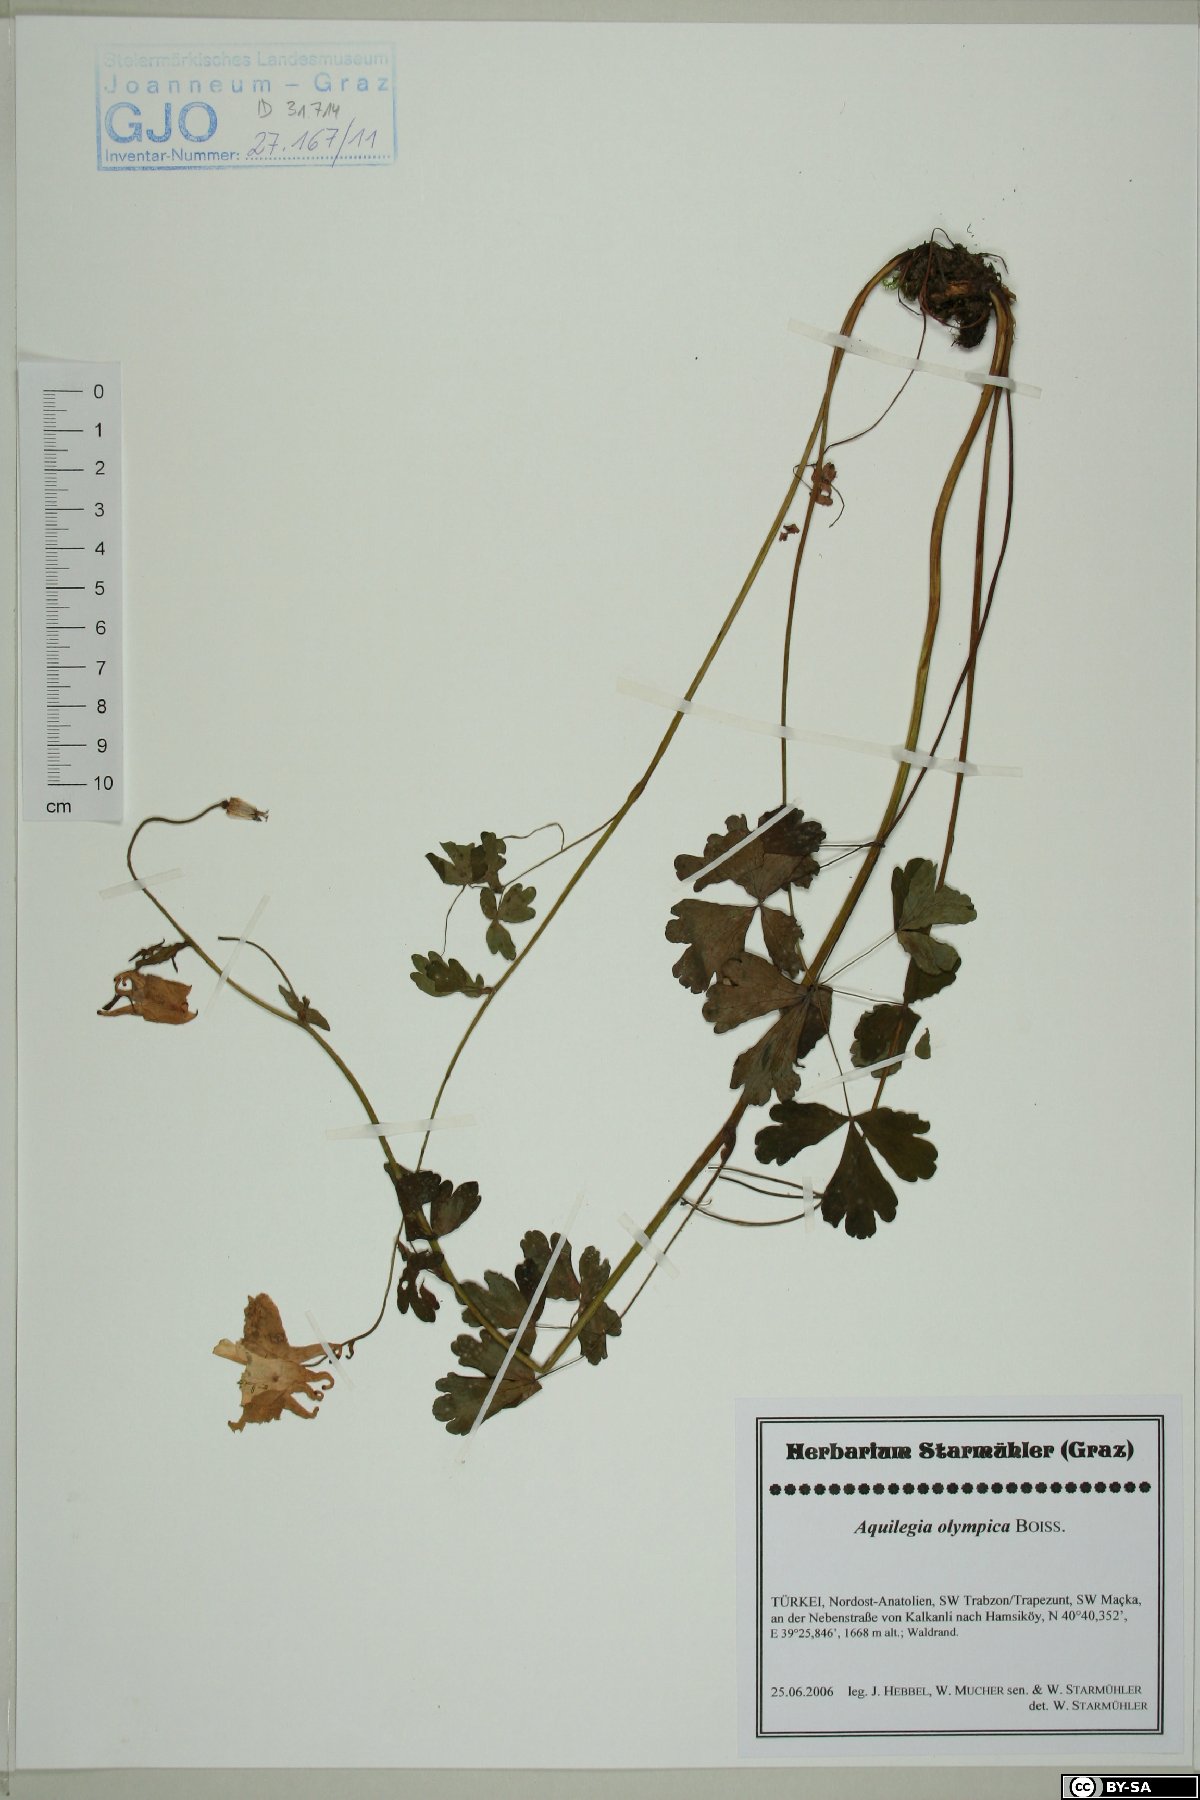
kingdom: Plantae
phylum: Tracheophyta
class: Magnoliopsida
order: Ranunculales
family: Ranunculaceae
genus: Aquilegia
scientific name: Aquilegia olympica
